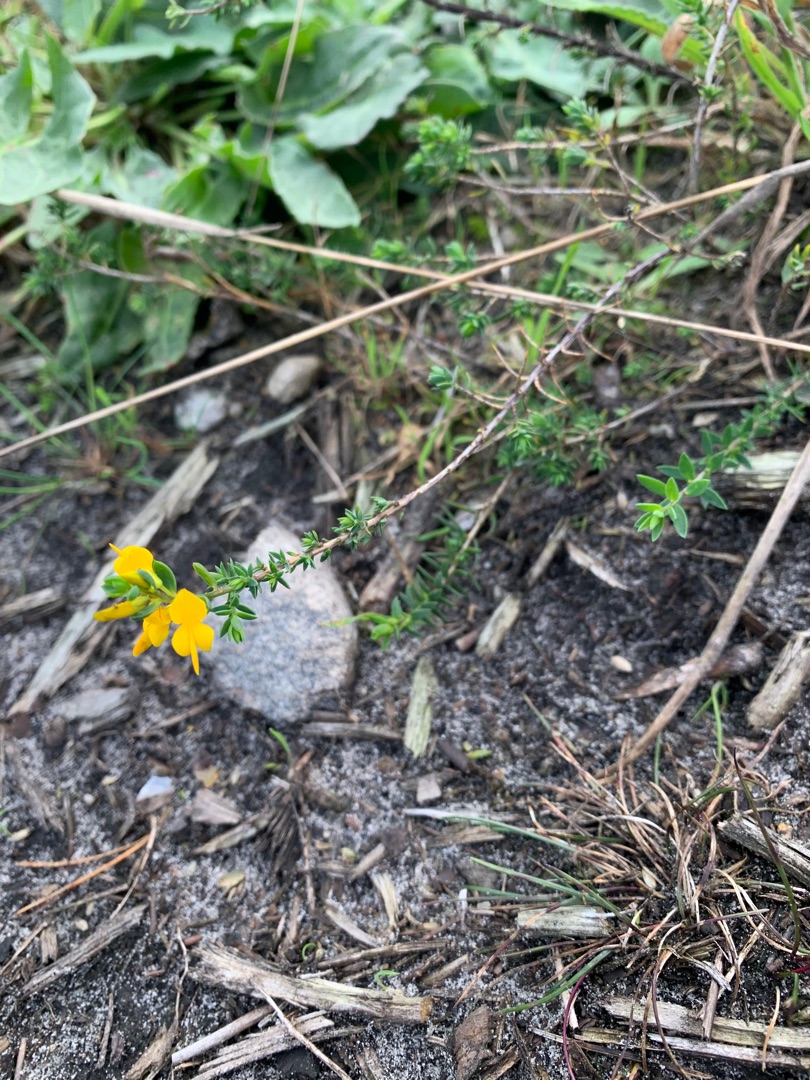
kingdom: Plantae
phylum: Tracheophyta
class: Magnoliopsida
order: Fabales
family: Fabaceae
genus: Genista
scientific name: Genista anglica
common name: Engelsk visse
